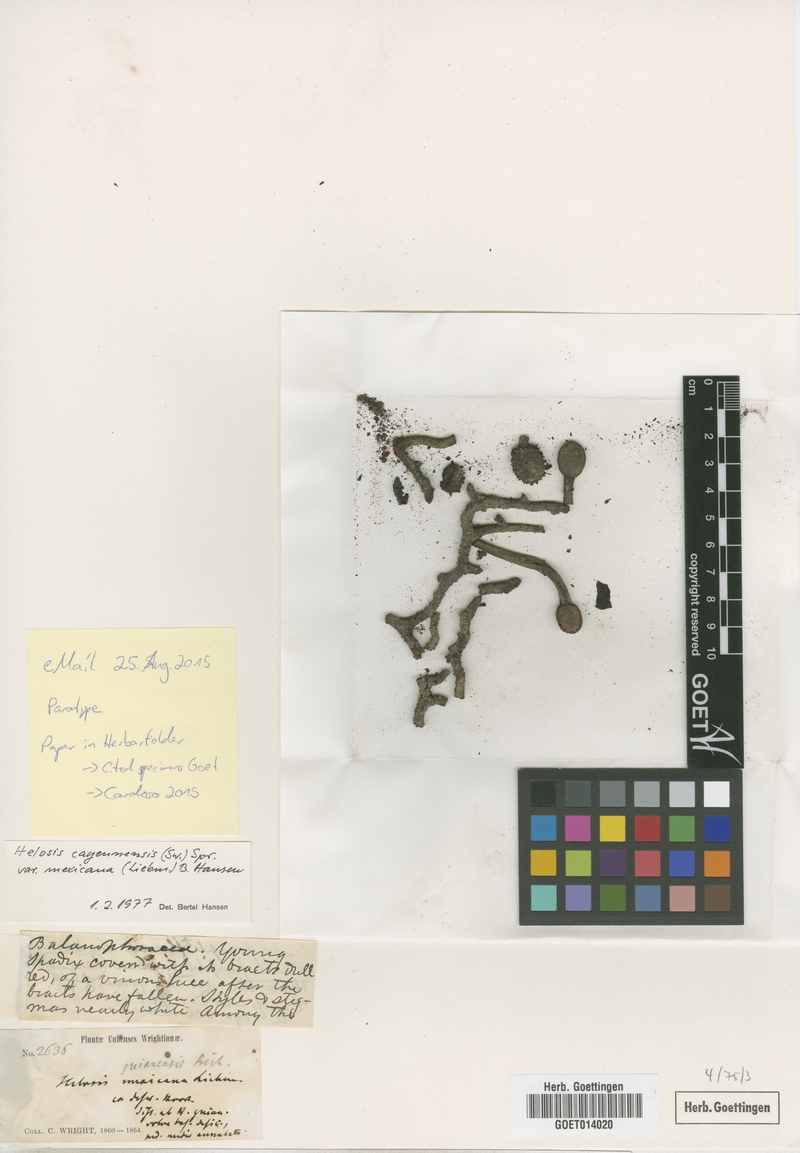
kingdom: Plantae
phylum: Tracheophyta
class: Magnoliopsida
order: Santalales
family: Balanophoraceae
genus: Helosis
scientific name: Helosis antillensis
